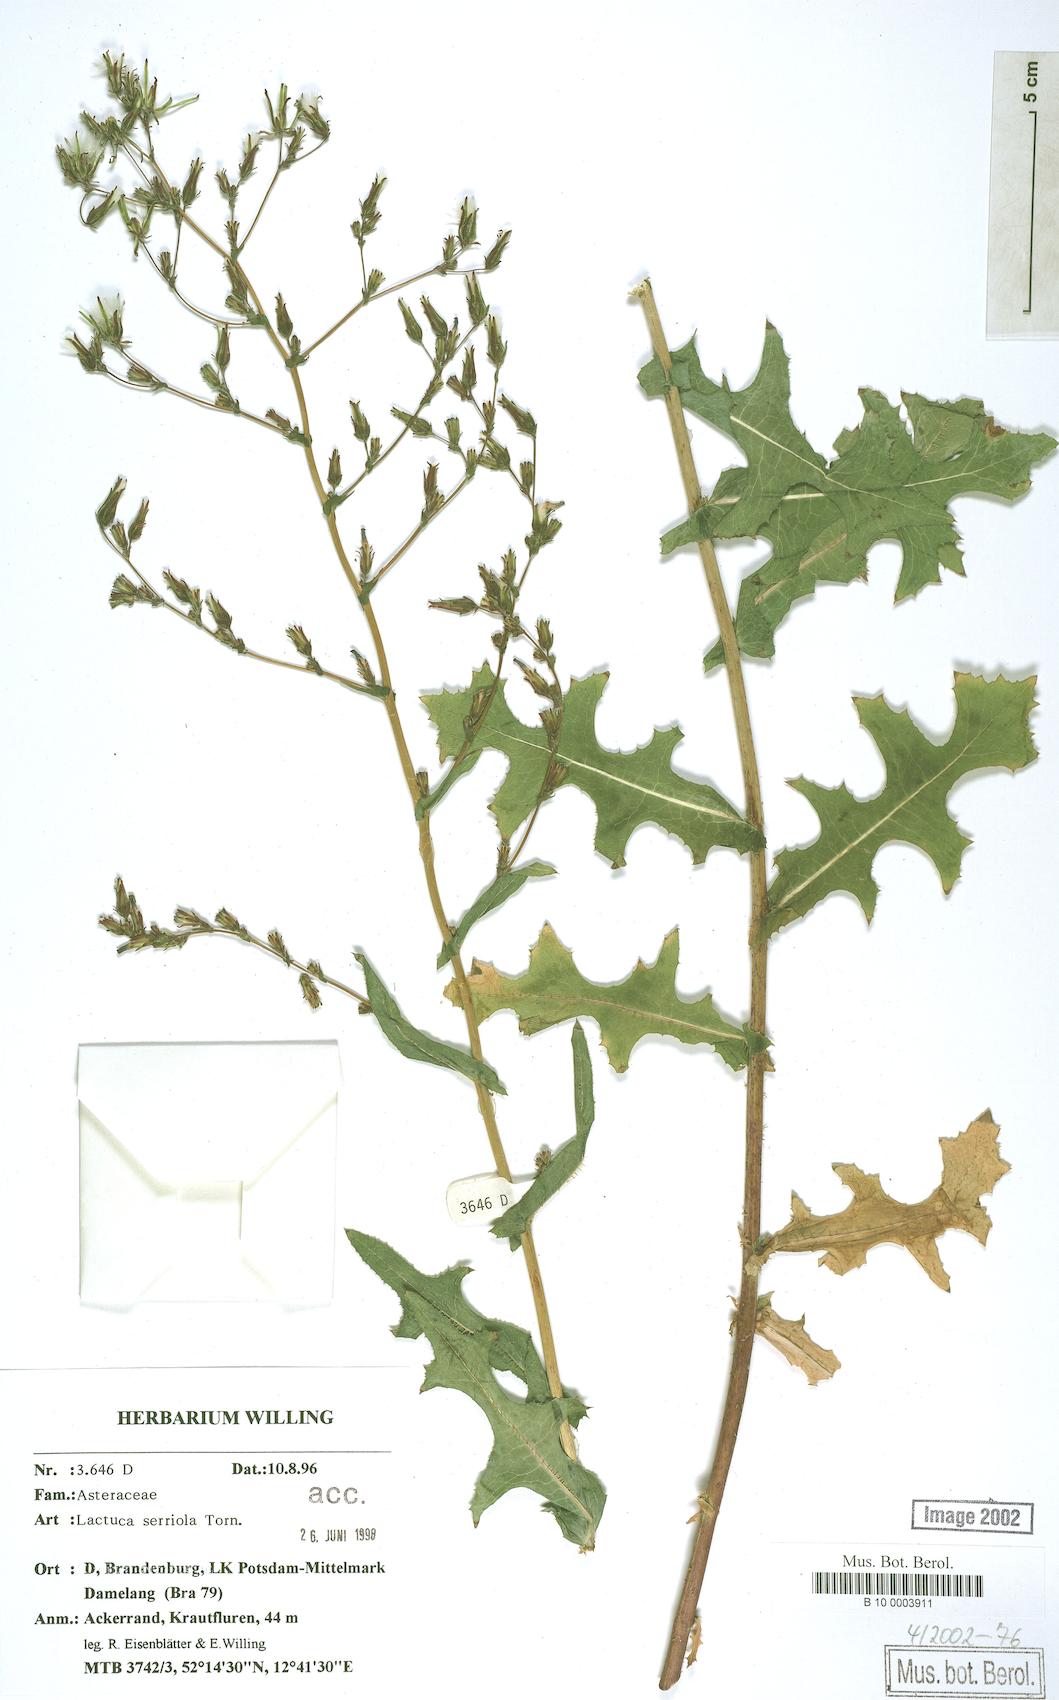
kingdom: Plantae
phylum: Tracheophyta
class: Magnoliopsida
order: Asterales
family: Asteraceae
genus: Lactuca
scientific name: Lactuca serriola
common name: Prickly lettuce
